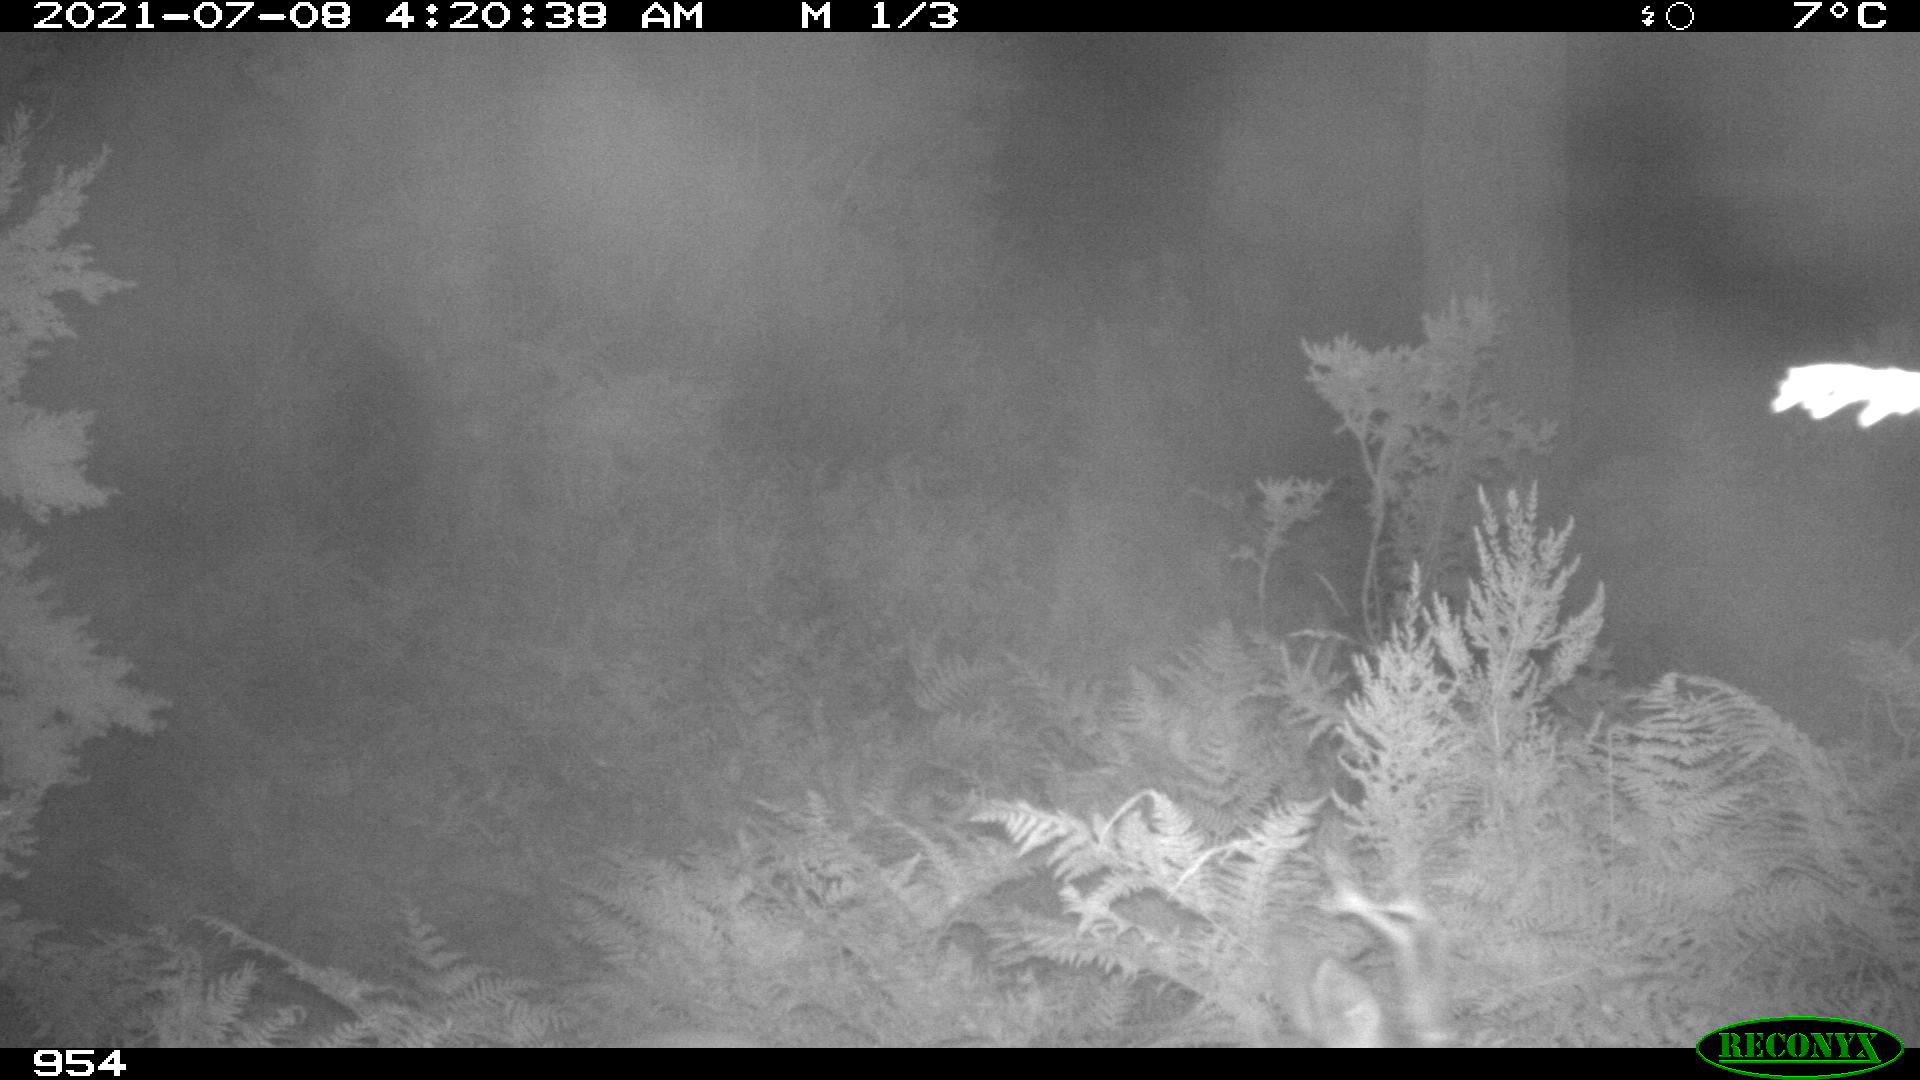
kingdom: Animalia
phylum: Chordata
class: Mammalia
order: Artiodactyla
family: Cervidae
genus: Capreolus
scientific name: Capreolus capreolus
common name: Western roe deer
